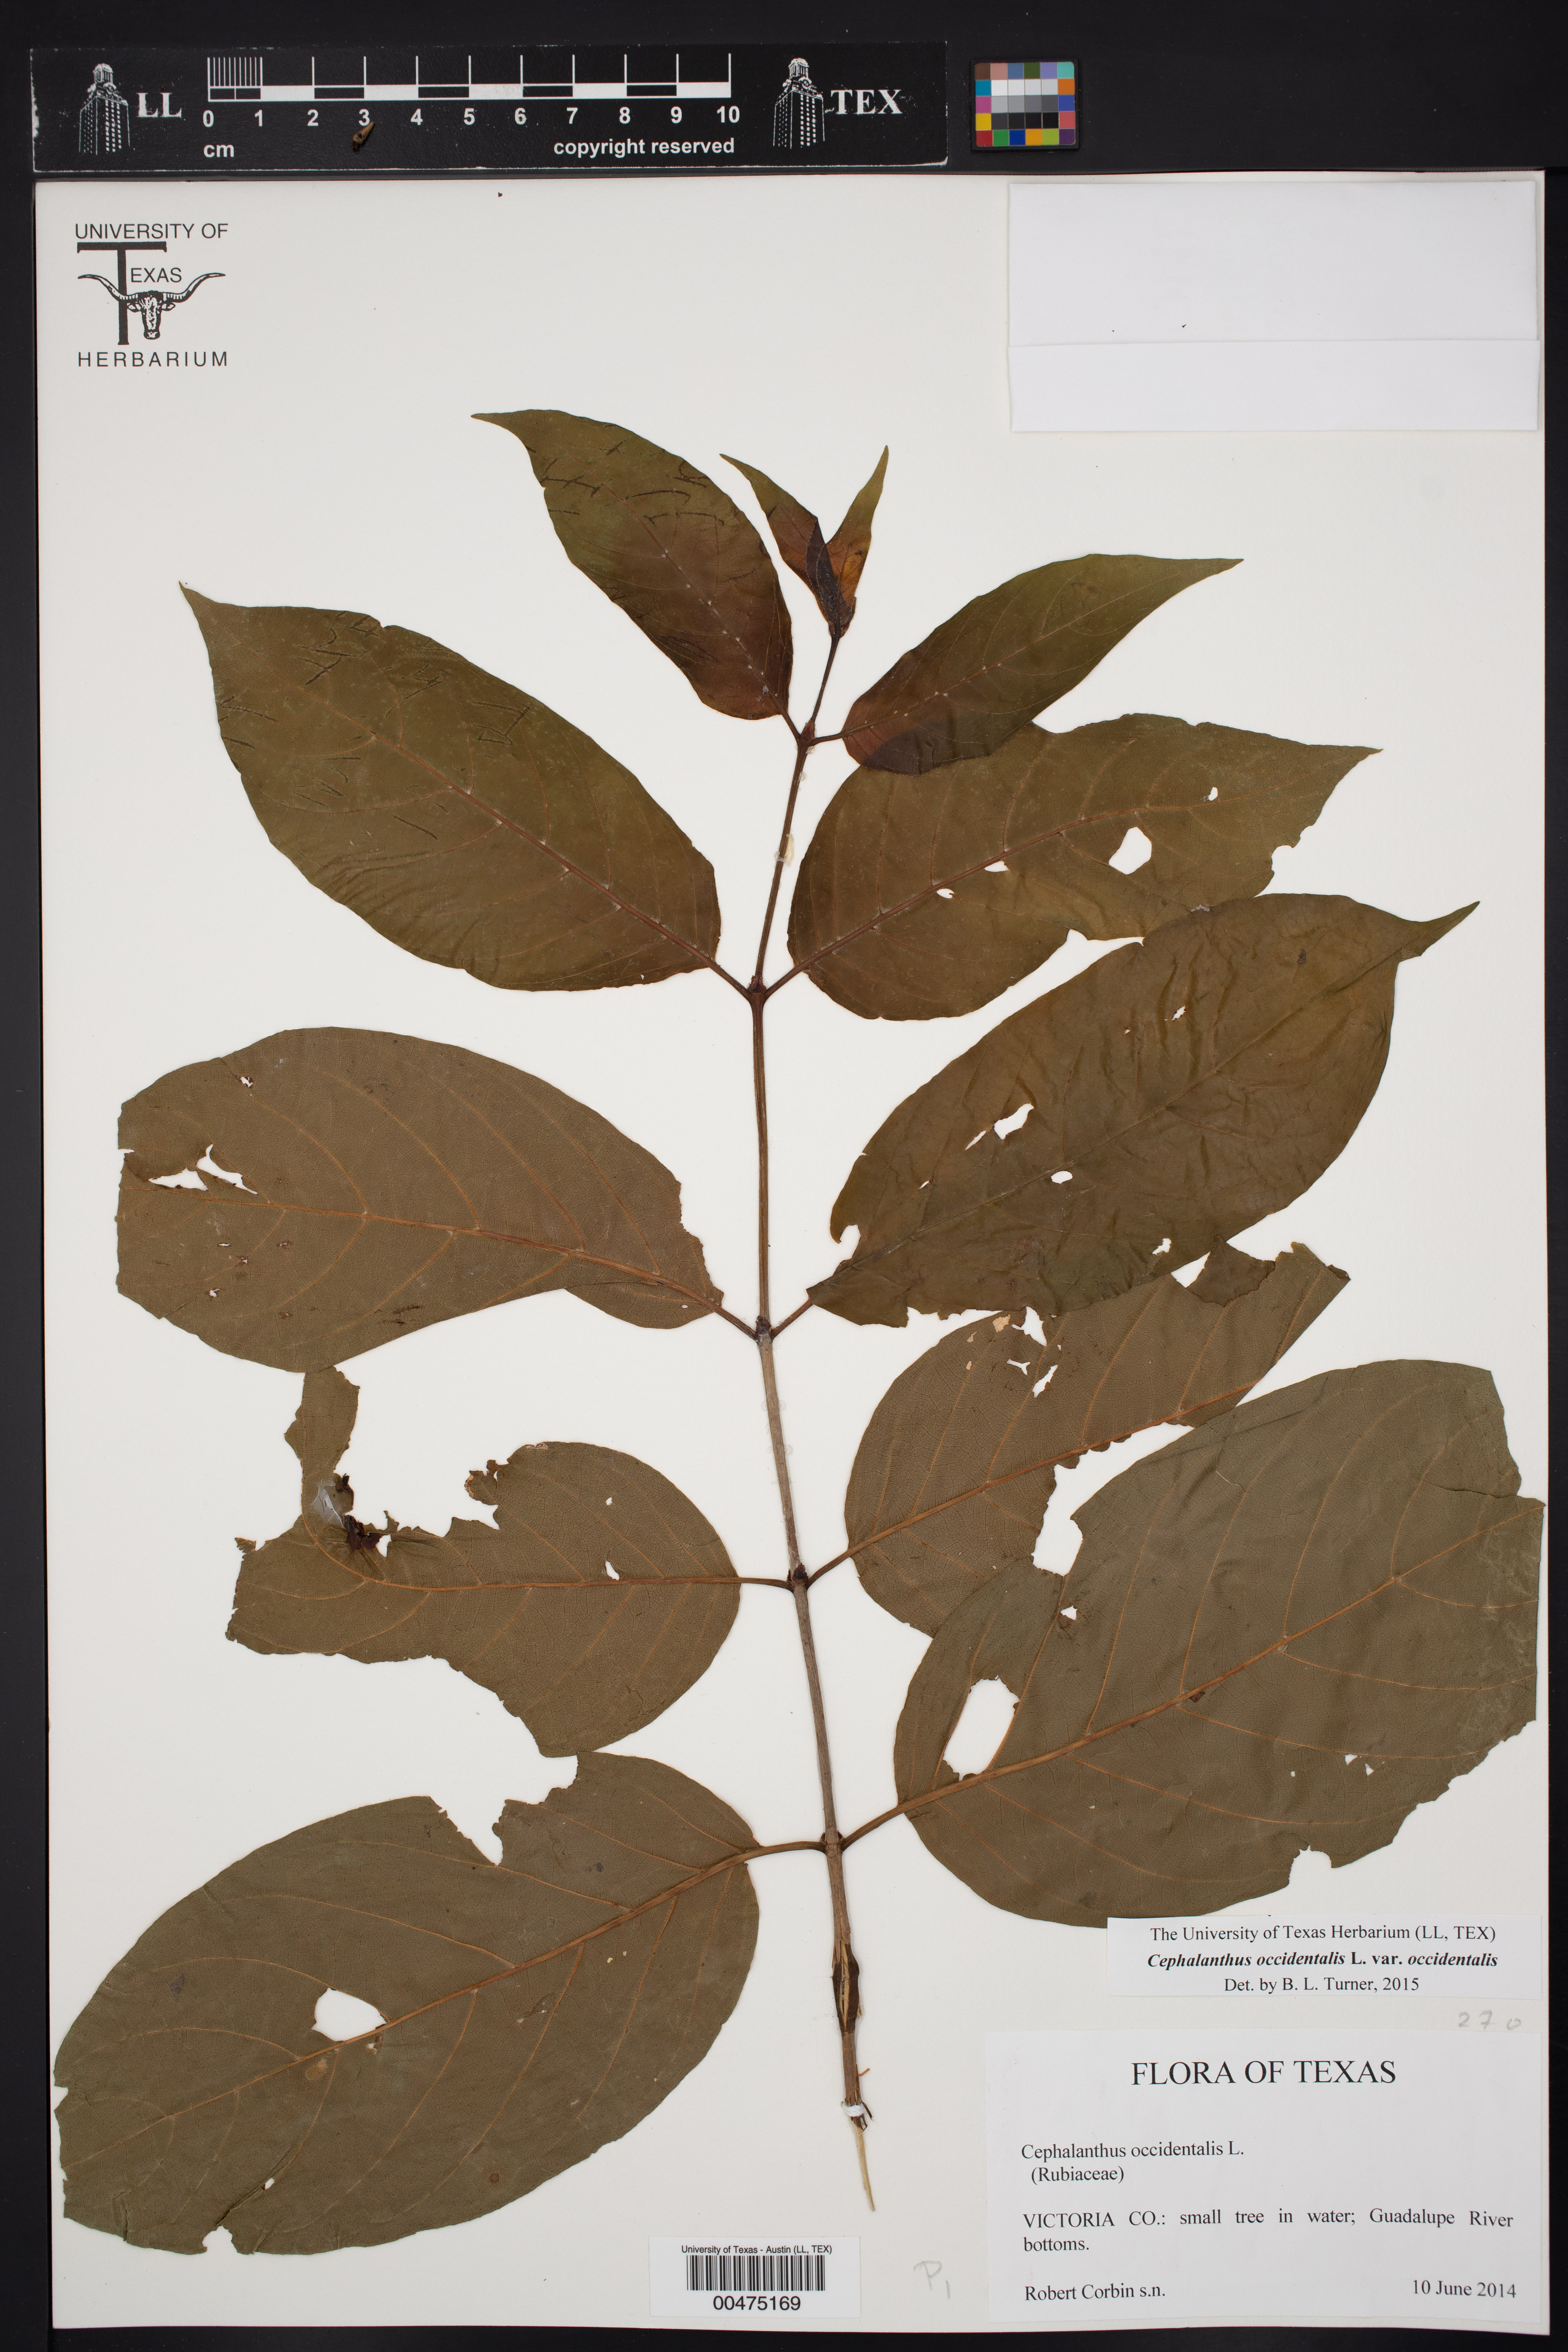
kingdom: Plantae
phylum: Tracheophyta
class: Magnoliopsida
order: Gentianales
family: Rubiaceae
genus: Cephalanthus
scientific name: Cephalanthus occidentalis
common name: Button-willow
